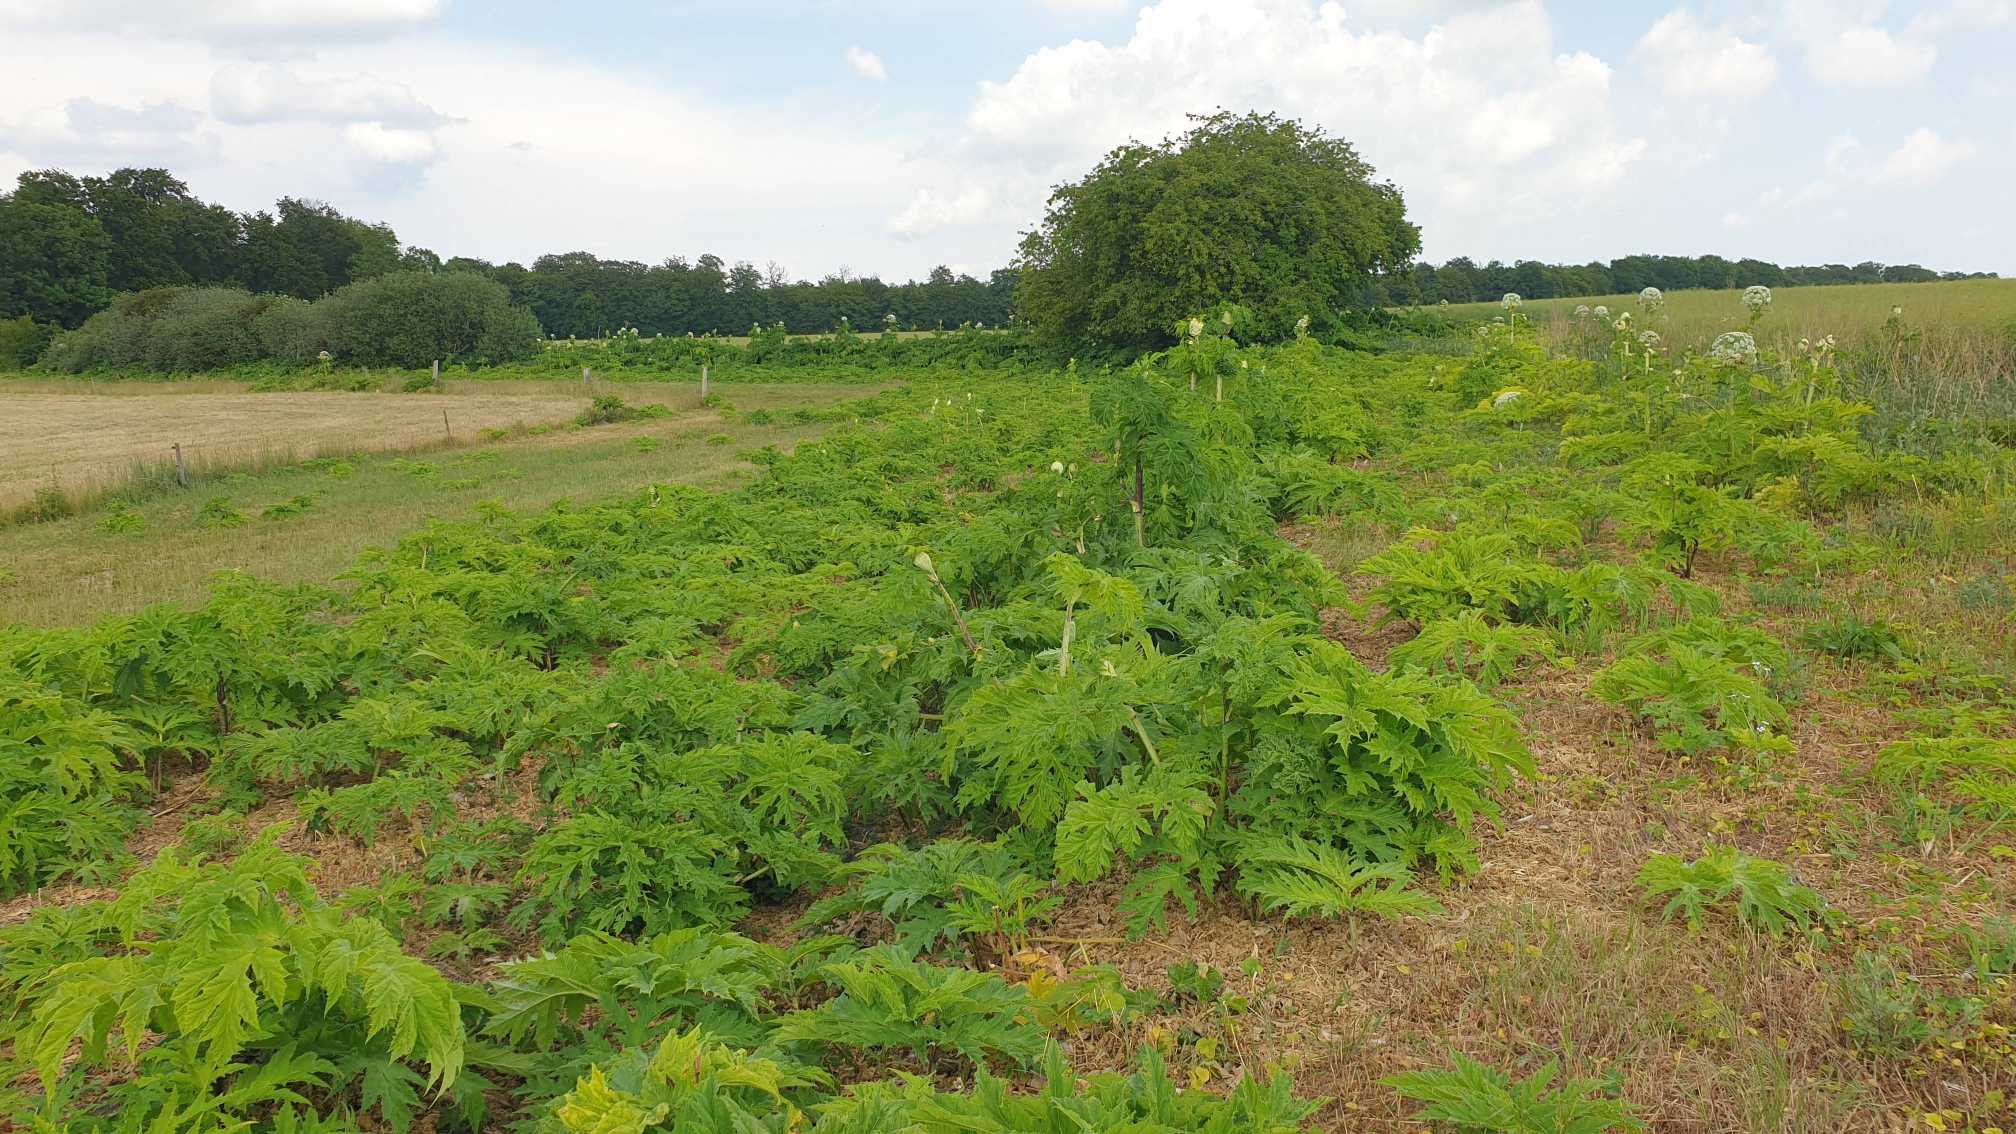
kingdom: Plantae
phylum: Tracheophyta
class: Magnoliopsida
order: Apiales
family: Apiaceae
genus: Heracleum
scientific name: Heracleum mantegazzianum
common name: Kæmpe-bjørneklo
